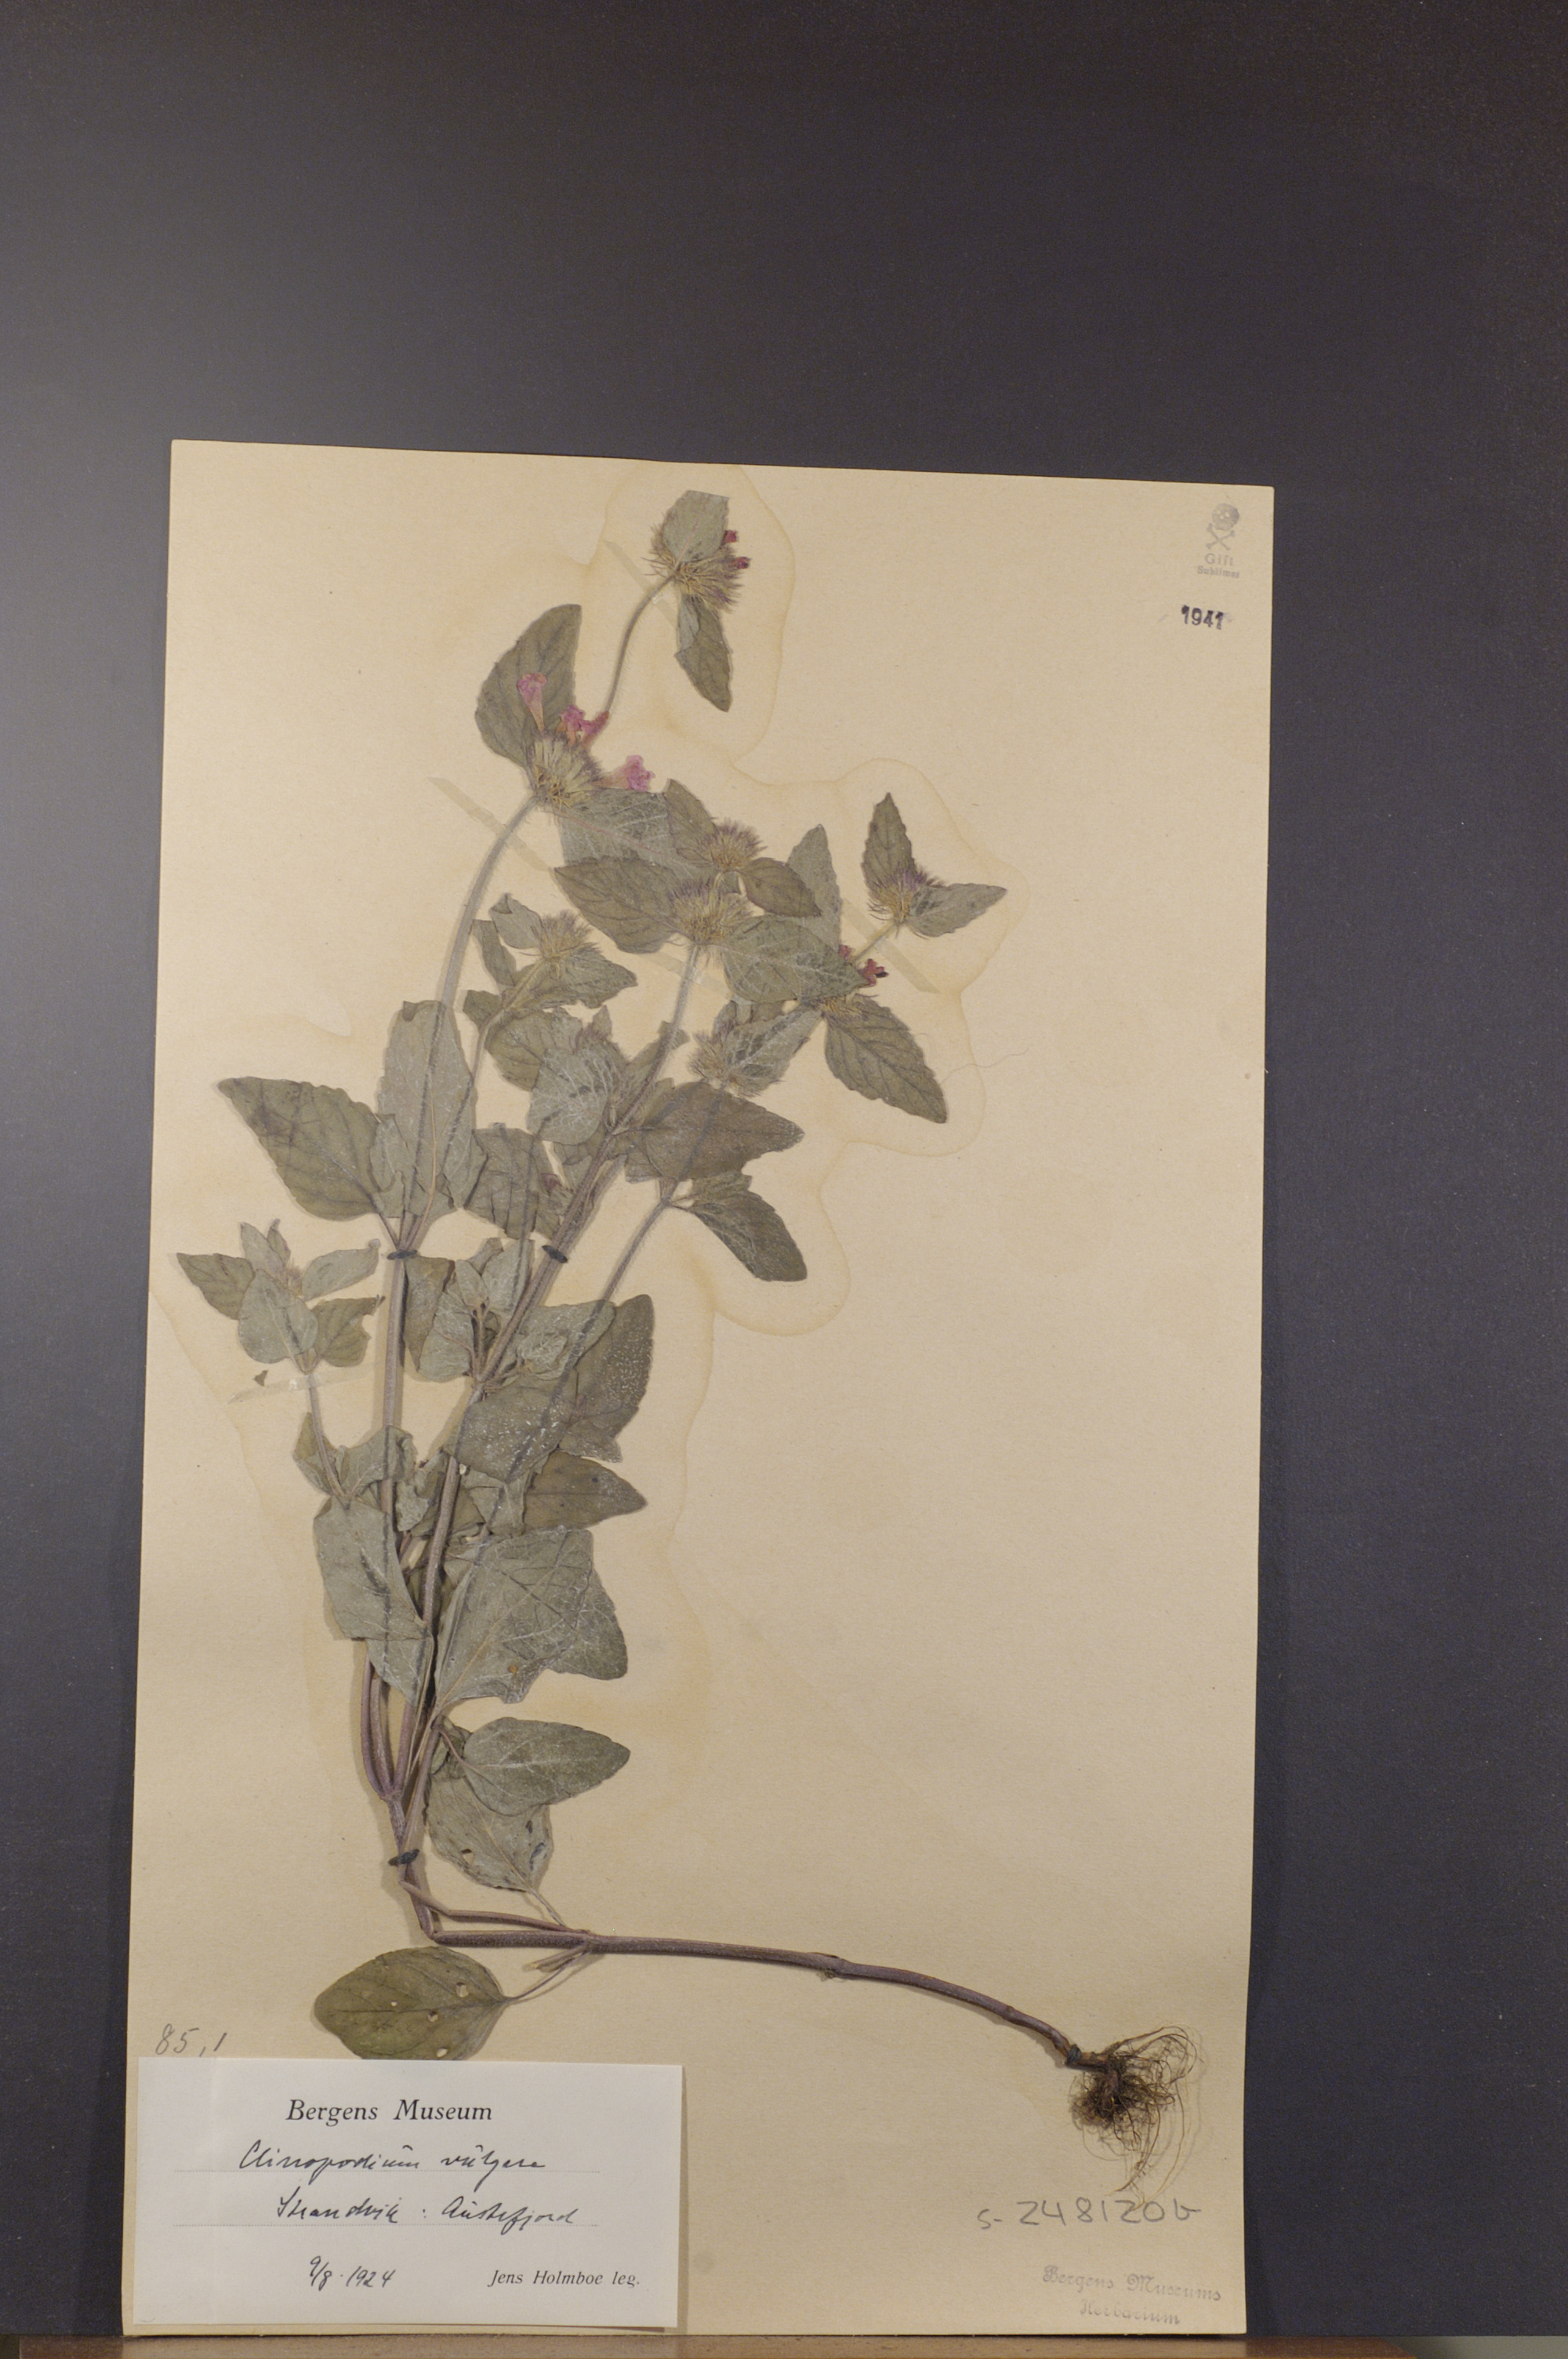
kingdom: Plantae
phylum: Tracheophyta
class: Magnoliopsida
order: Lamiales
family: Lamiaceae
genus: Clinopodium
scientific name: Clinopodium vulgare
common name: Wild basil
